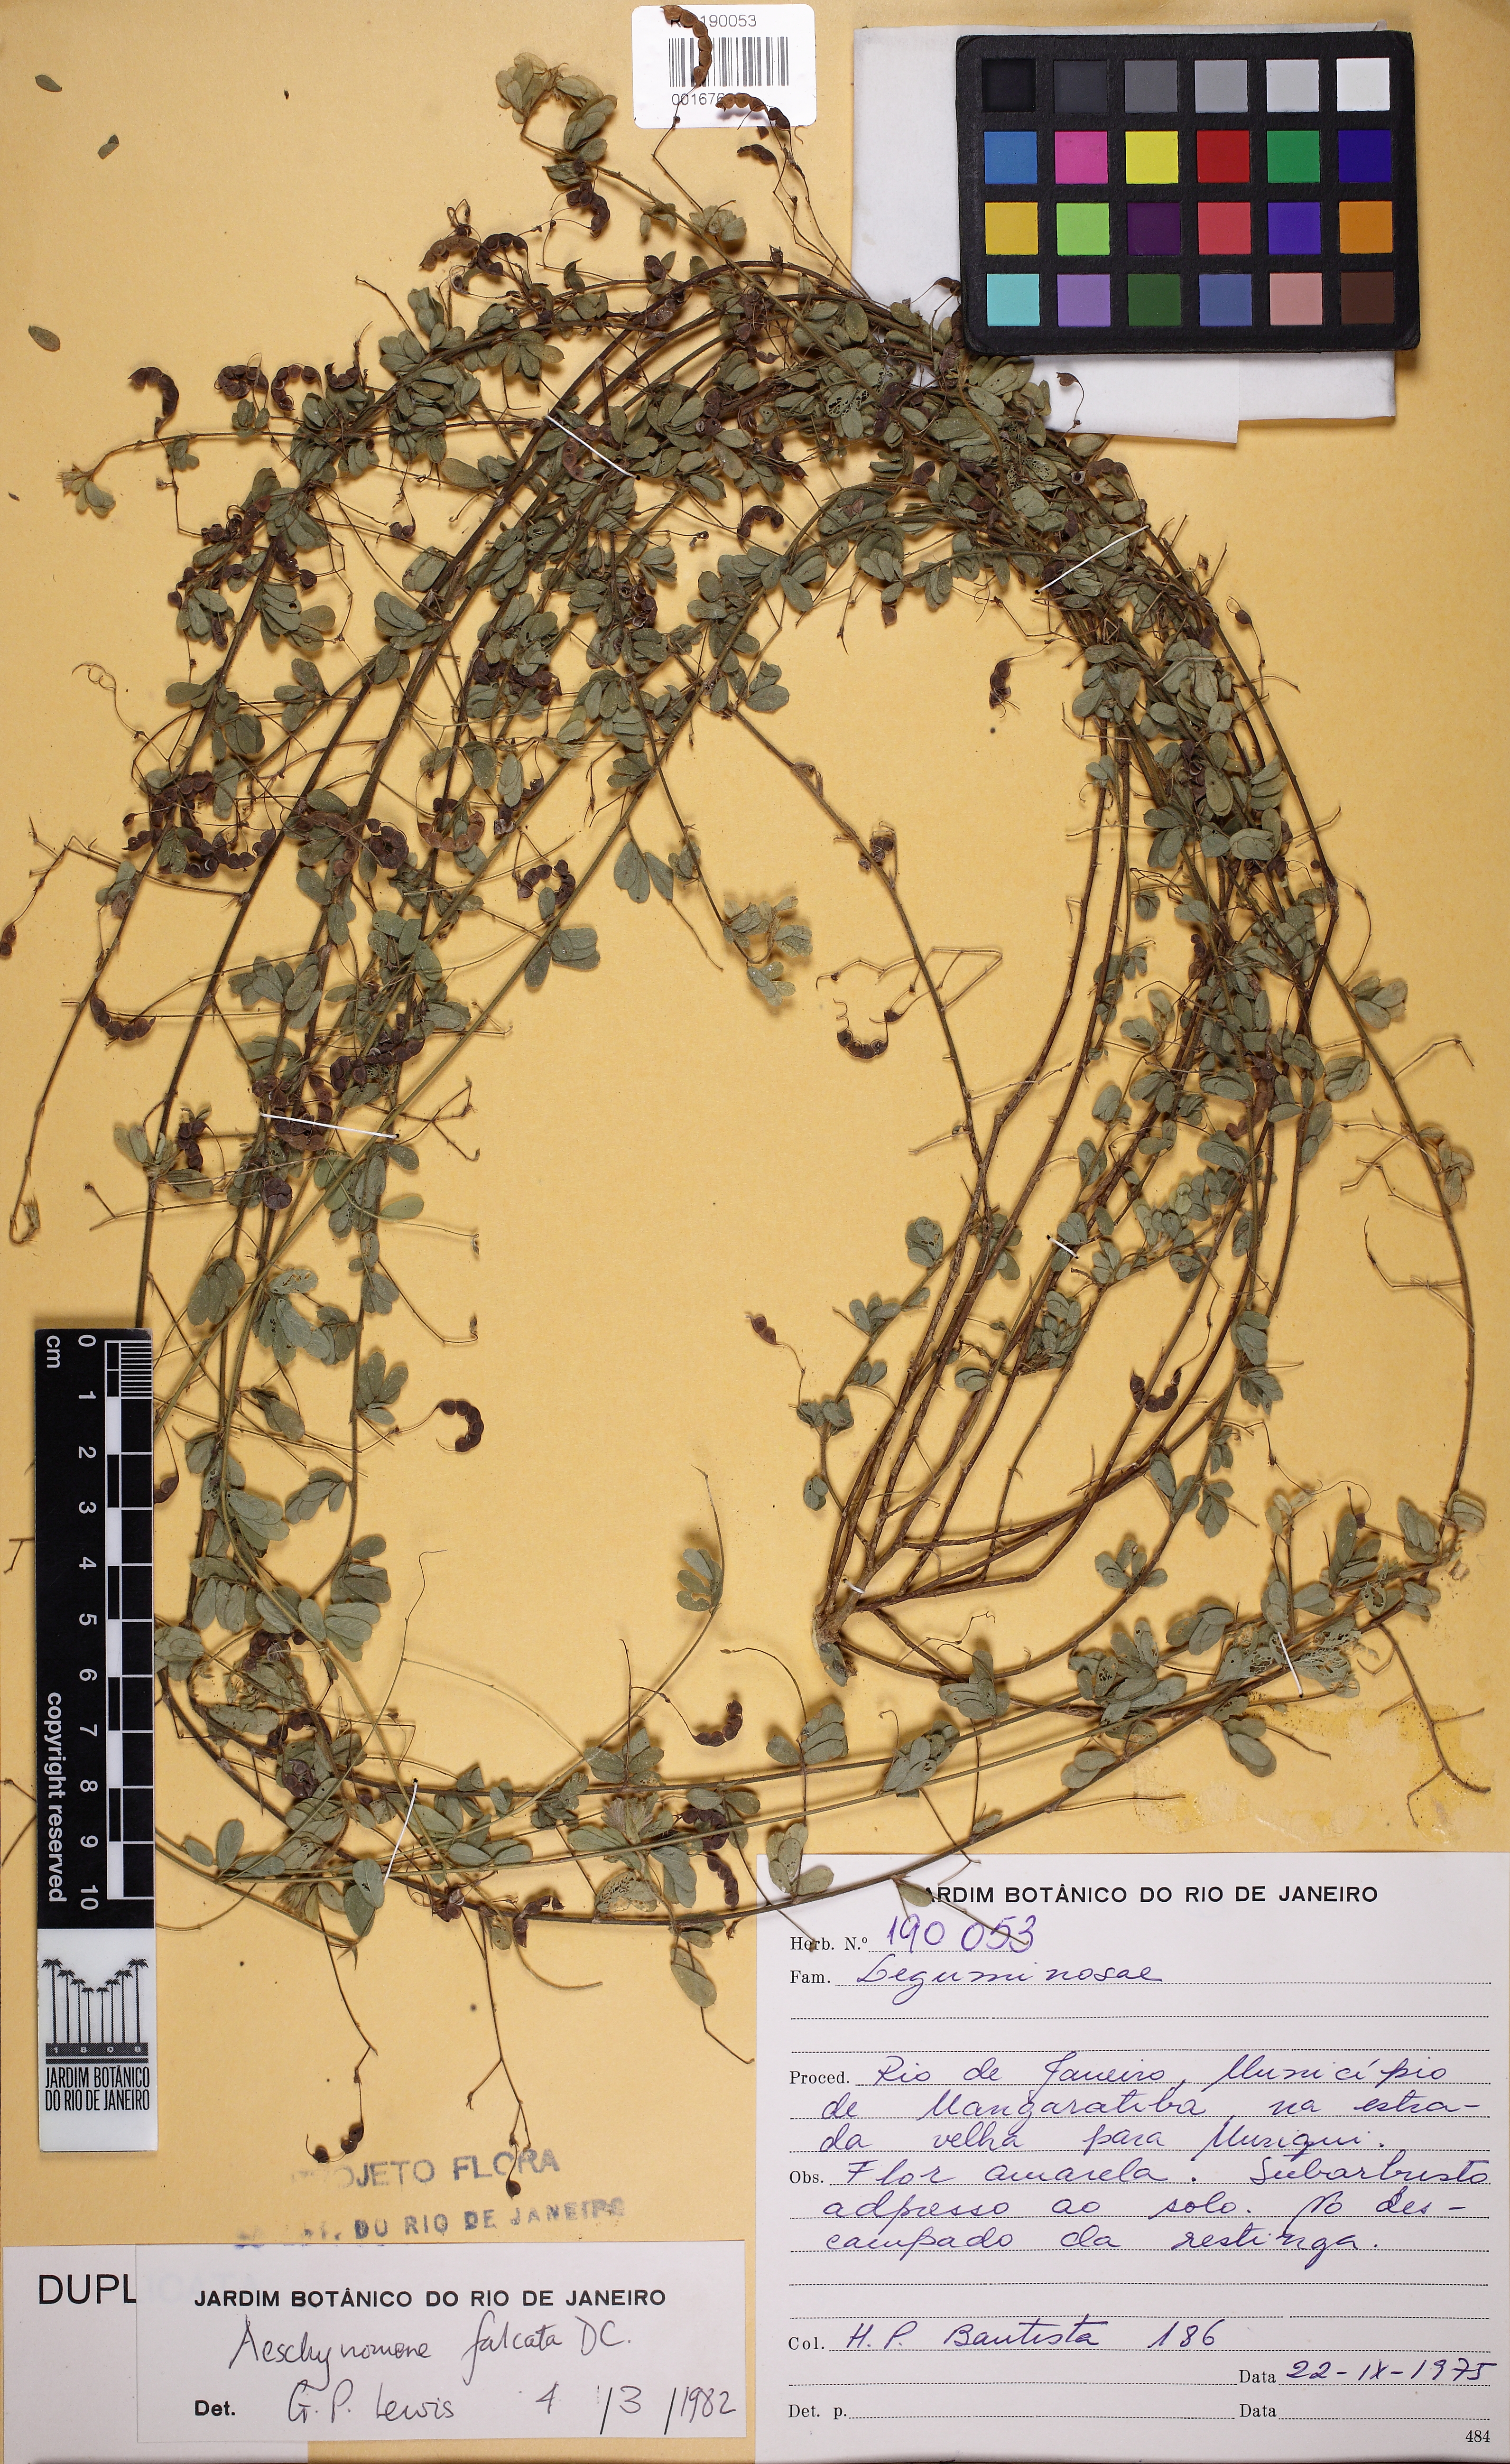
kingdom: Plantae
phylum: Tracheophyta
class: Magnoliopsida
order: Fabales
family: Fabaceae
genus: Ctenodon
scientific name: Ctenodon falcatus
